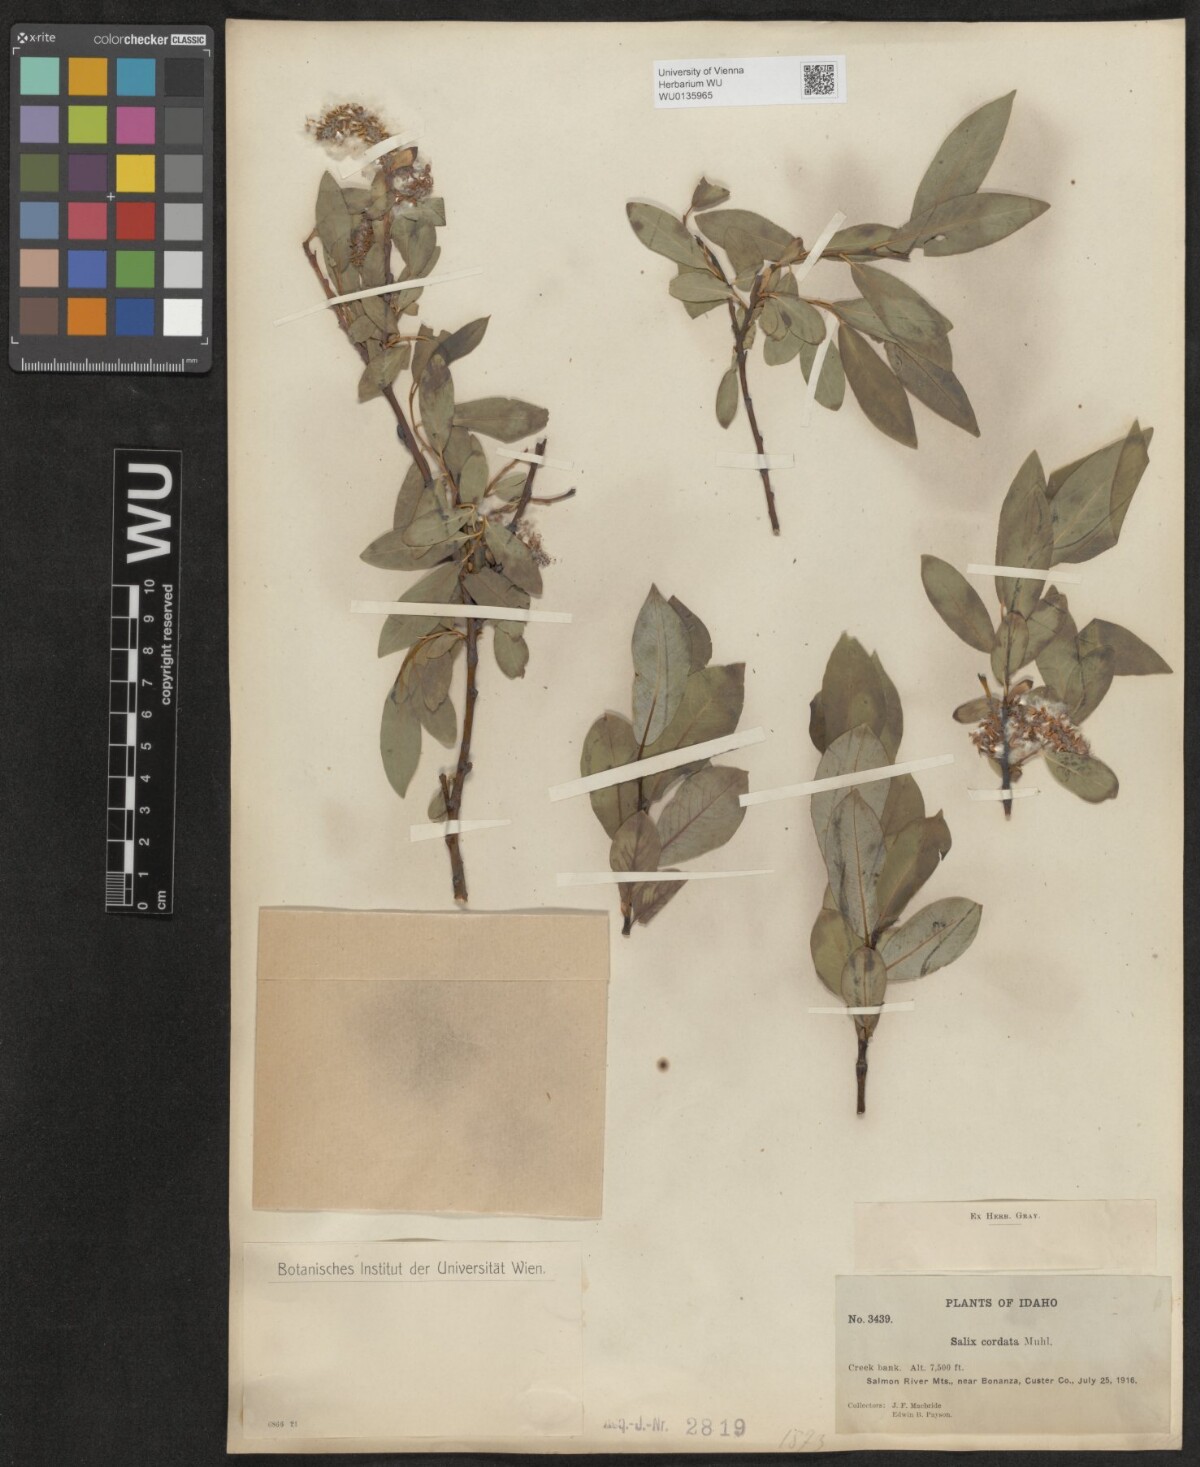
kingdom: Plantae
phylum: Tracheophyta
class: Magnoliopsida
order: Malpighiales
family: Salicaceae
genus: Salix
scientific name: Salix cordata
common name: Heart-leaf willow
